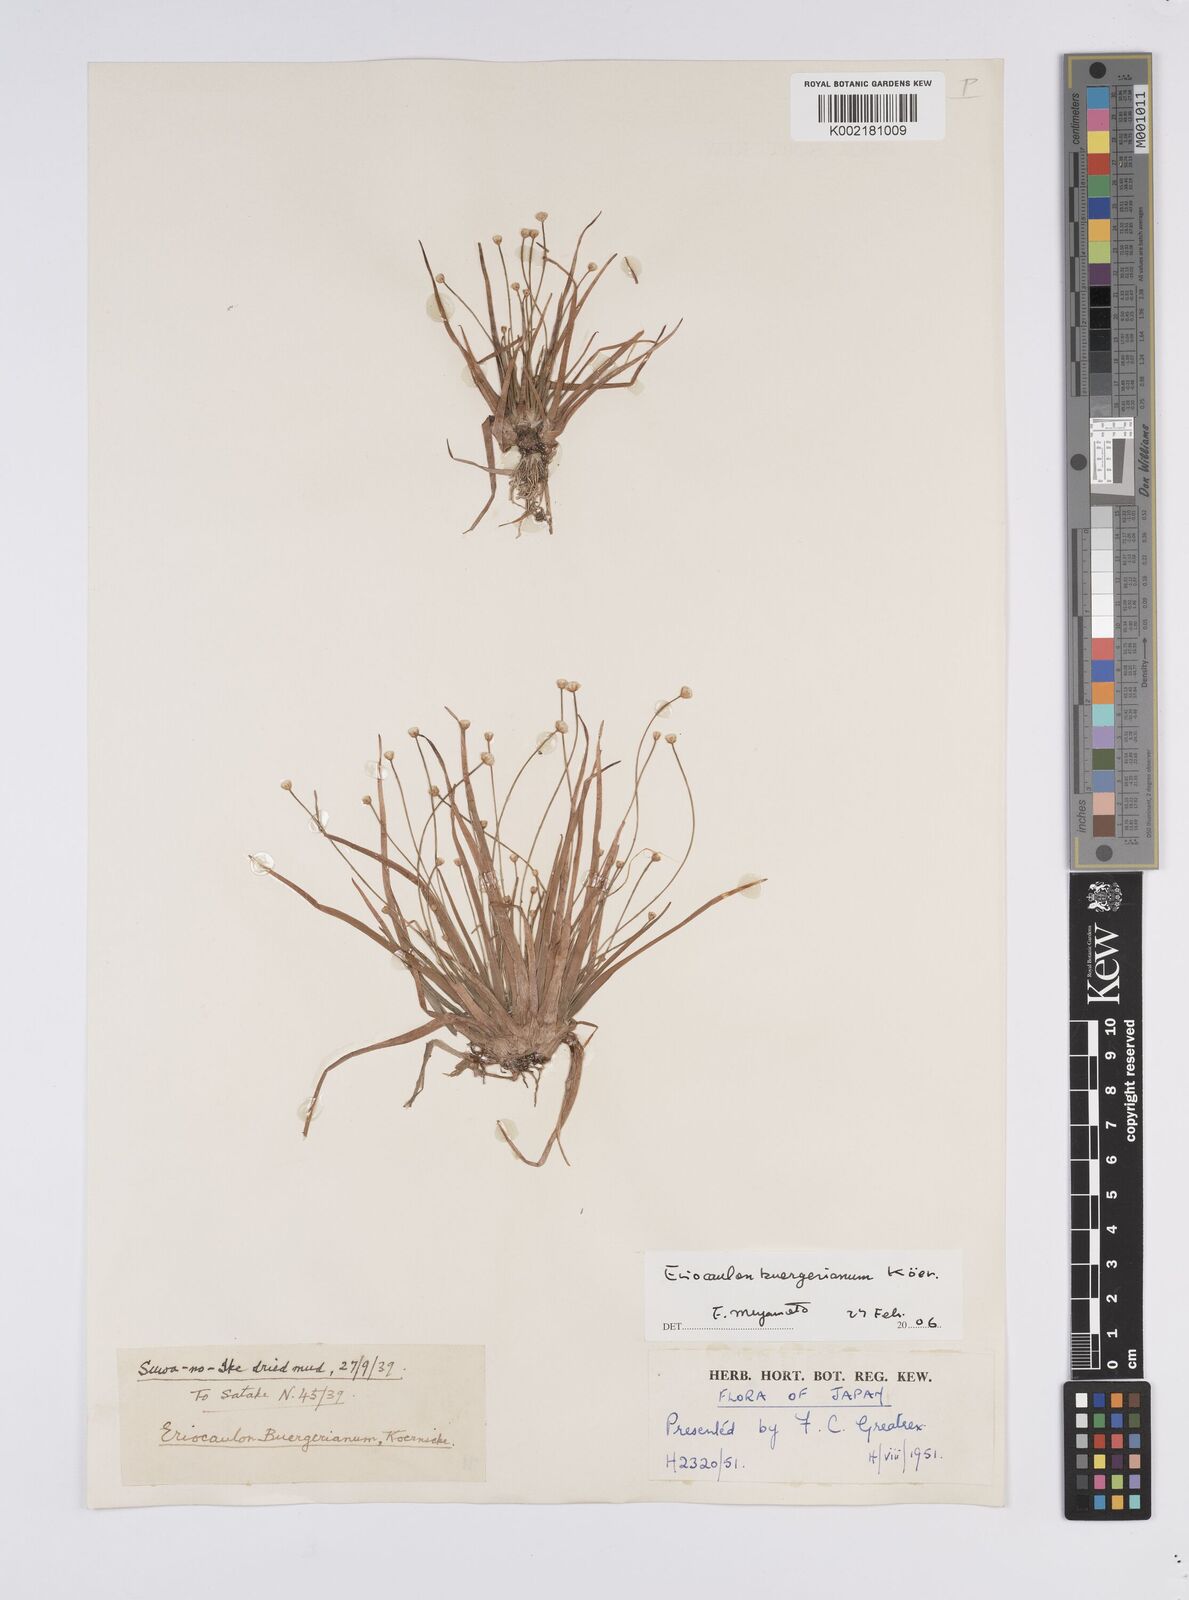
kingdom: Plantae
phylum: Tracheophyta
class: Liliopsida
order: Poales
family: Eriocaulaceae
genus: Eriocaulon
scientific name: Eriocaulon buergerianum
